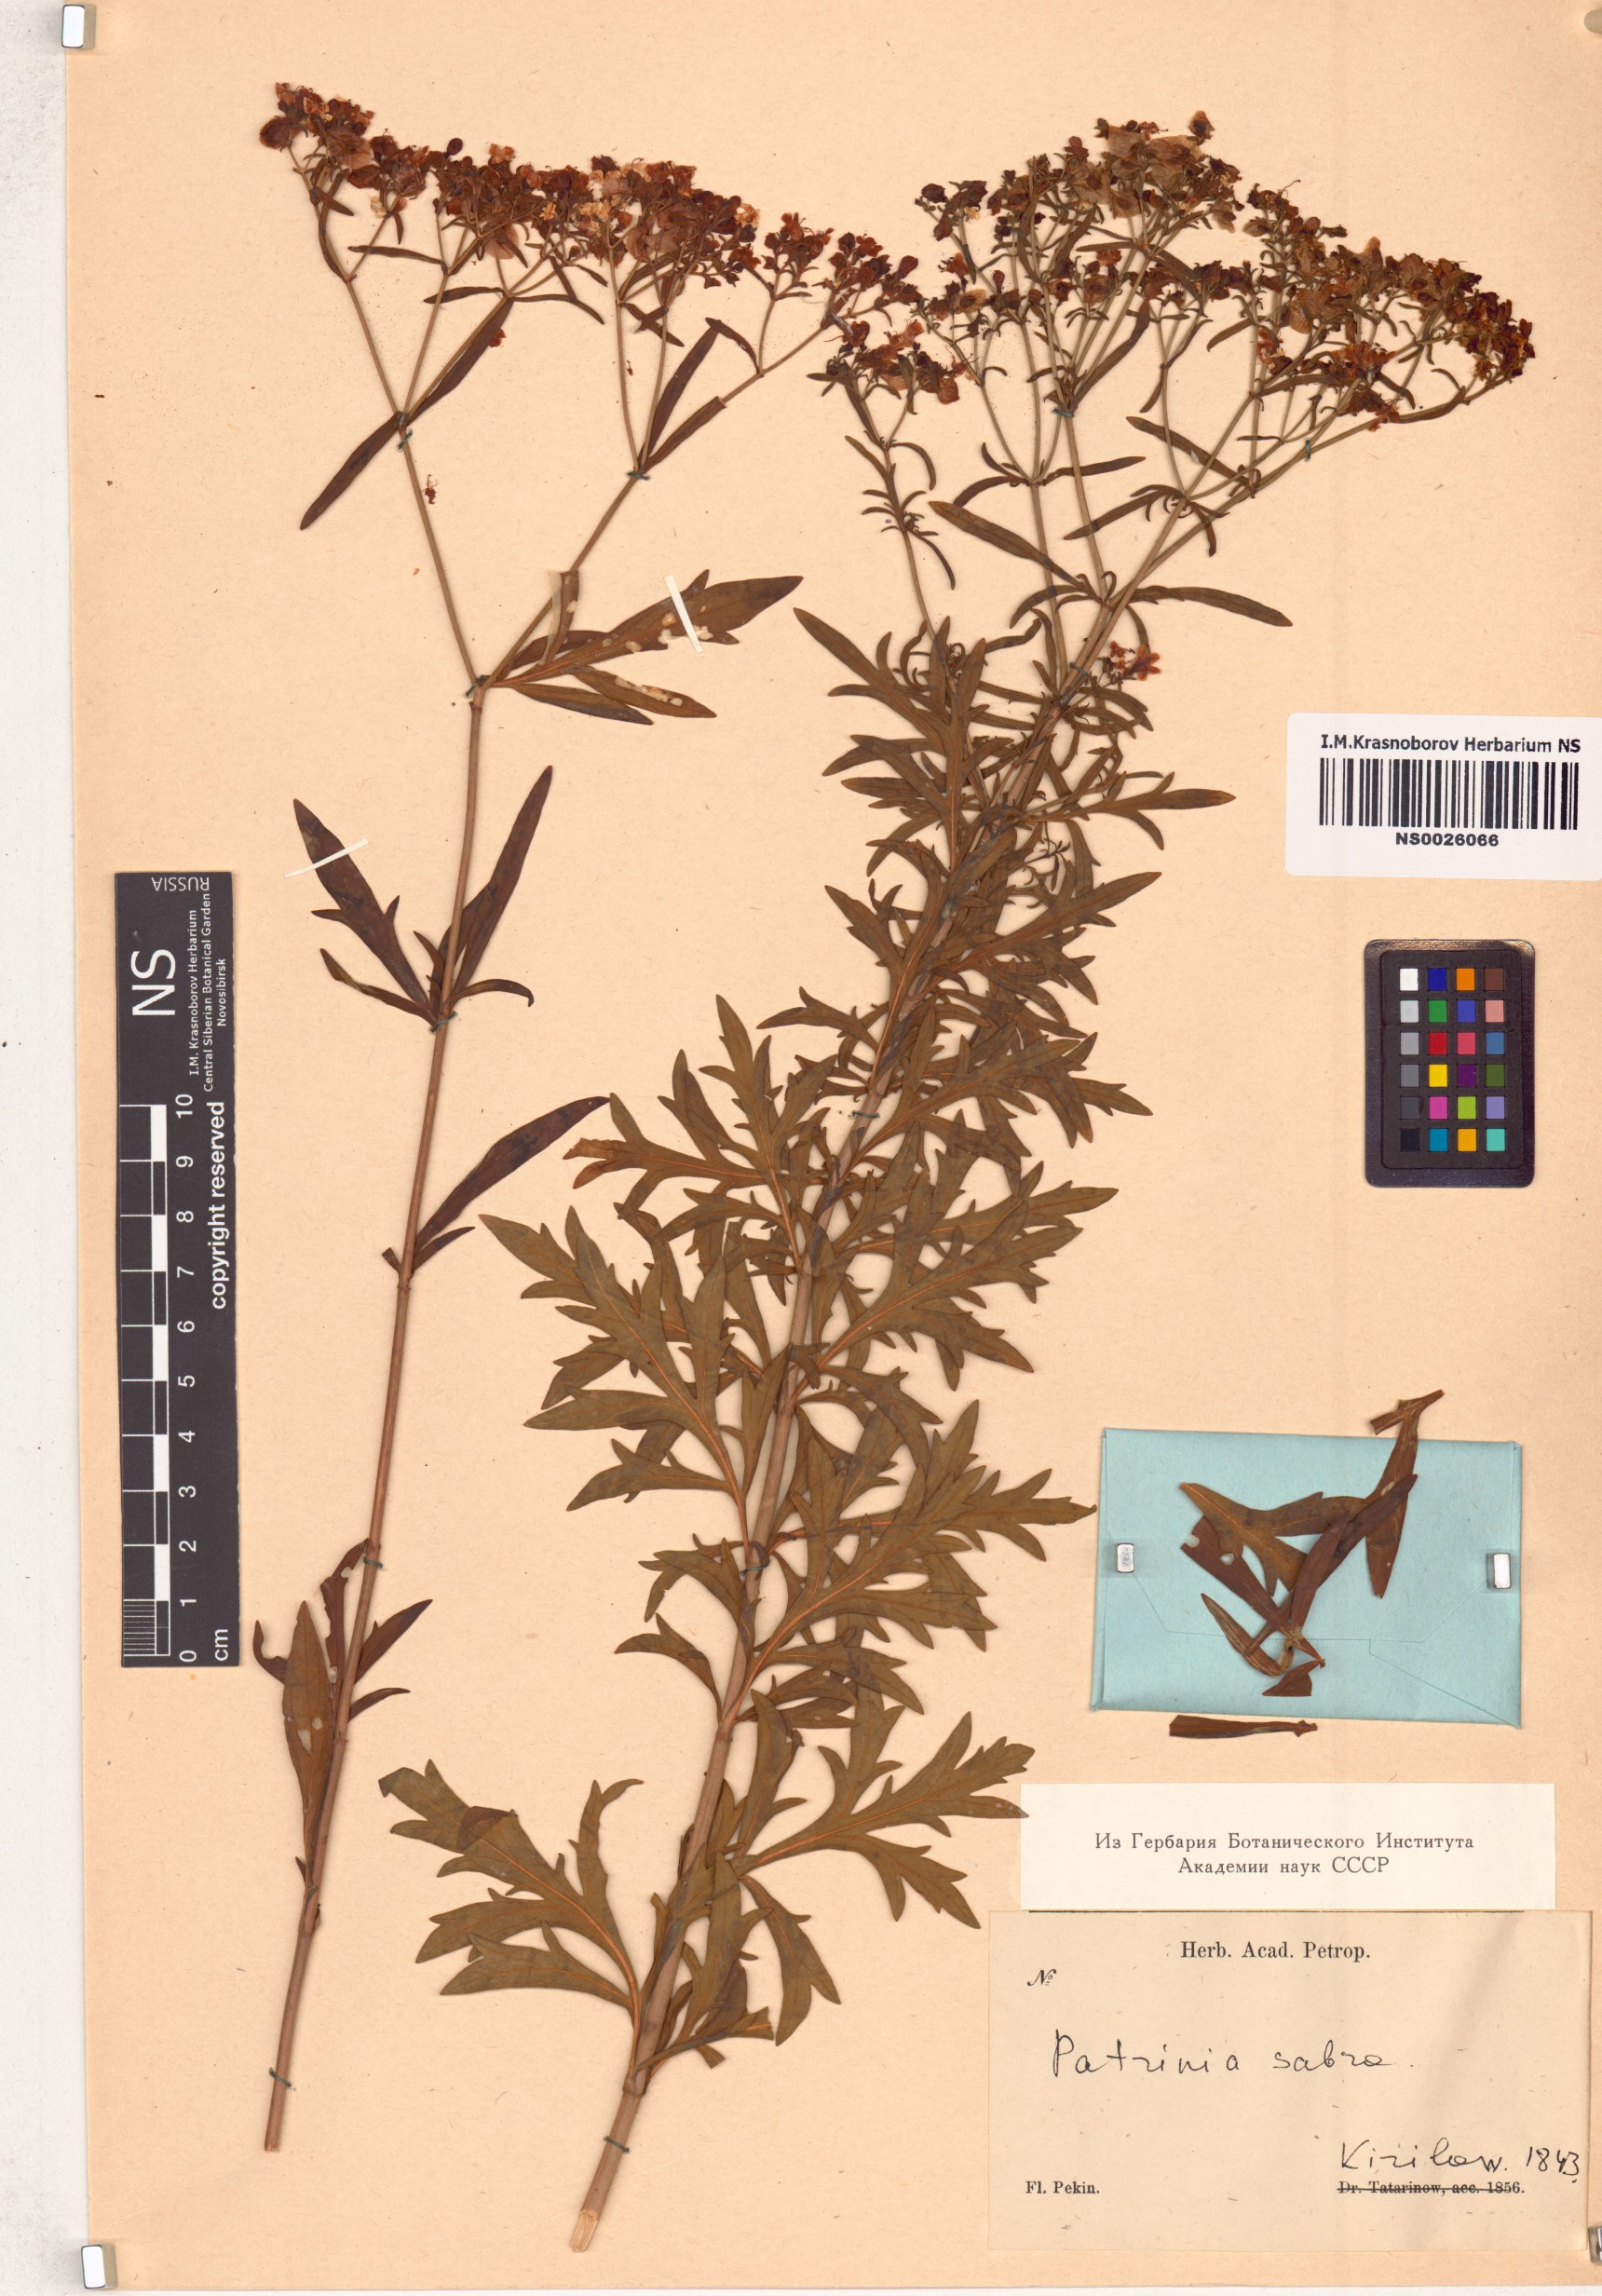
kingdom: Plantae
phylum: Tracheophyta
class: Magnoliopsida
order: Dipsacales
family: Caprifoliaceae
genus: Patrinia
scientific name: Patrinia scabra
